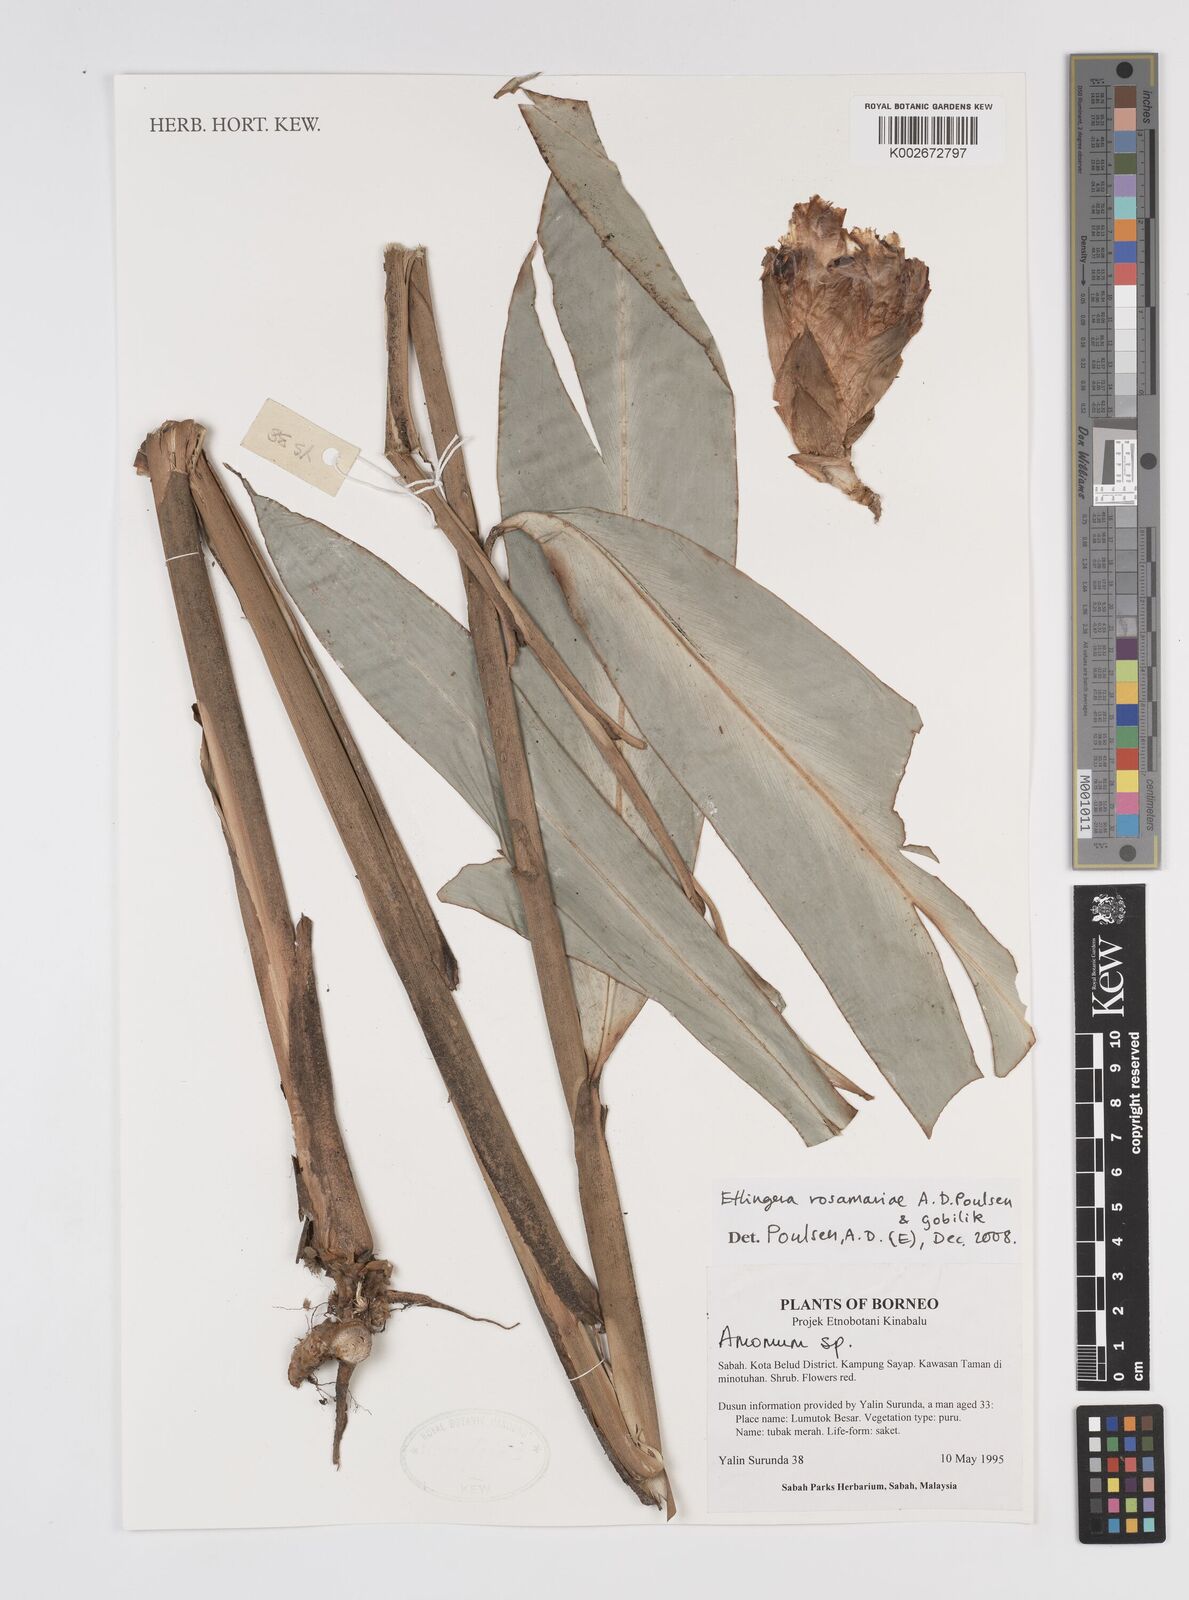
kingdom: Plantae
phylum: Tracheophyta
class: Liliopsida
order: Zingiberales
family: Zingiberaceae
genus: Etlingera
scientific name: Etlingera rosamariae
